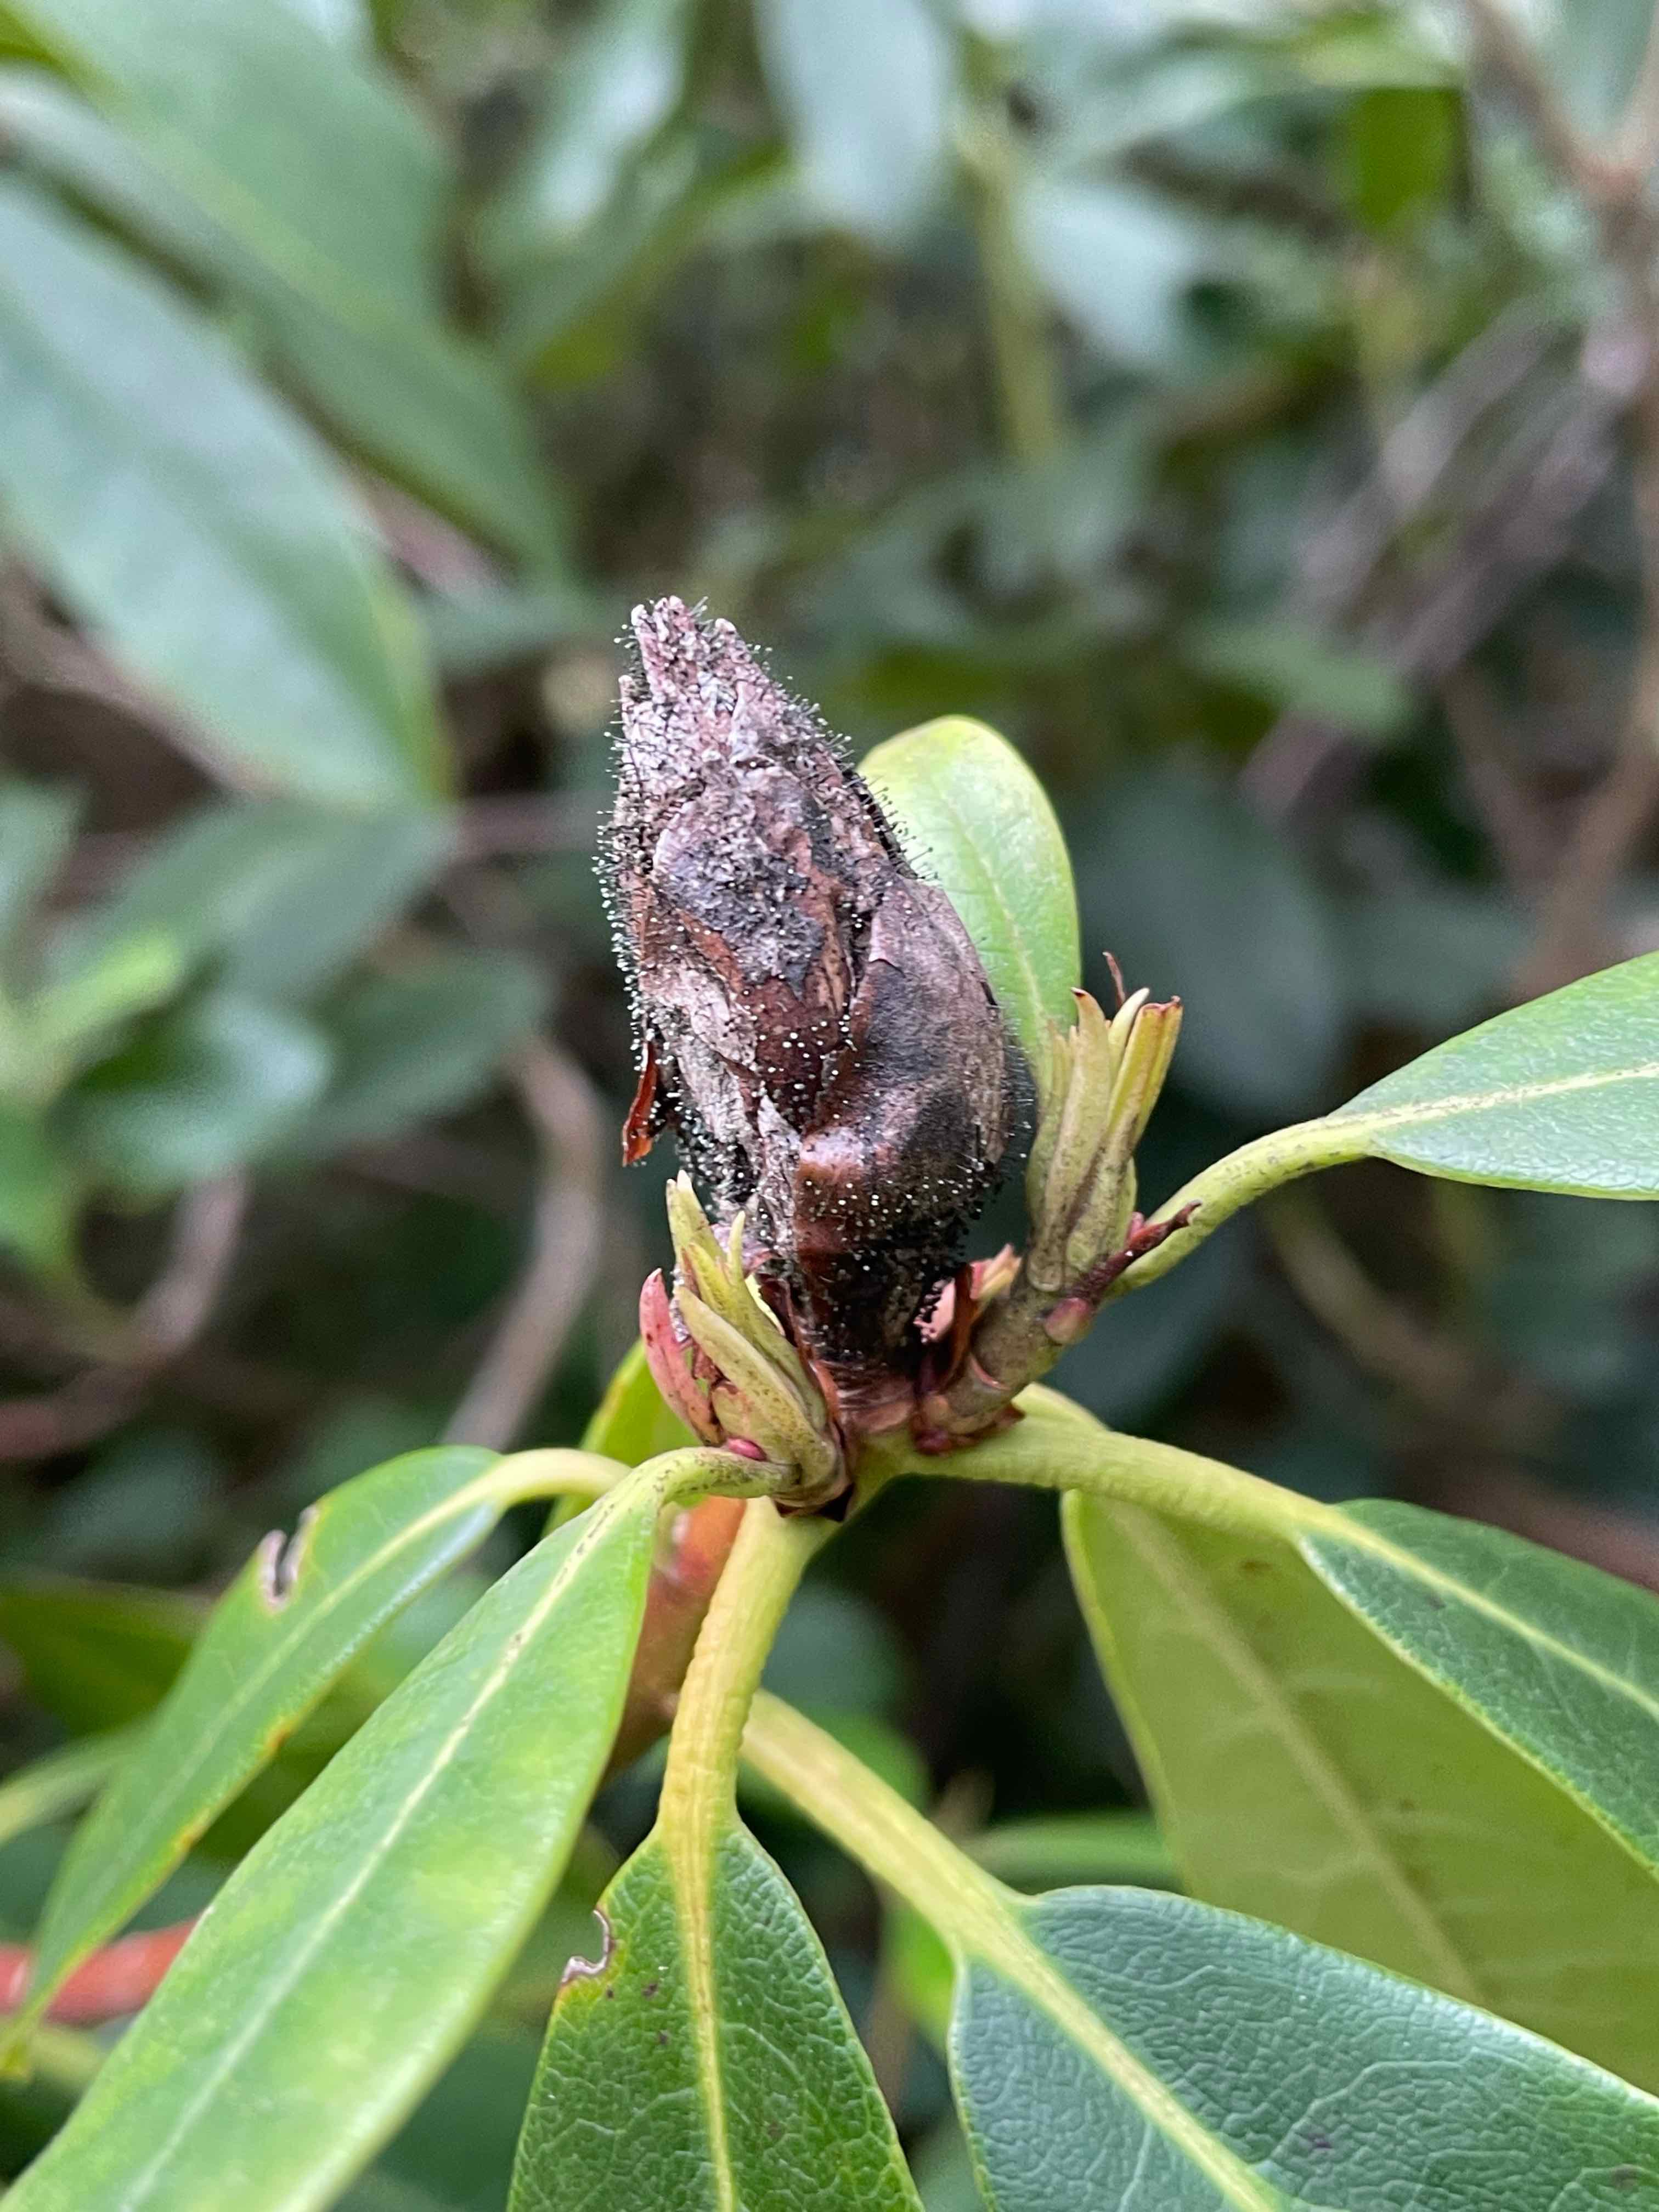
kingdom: Fungi
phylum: Ascomycota
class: Dothideomycetes
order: Pleosporales
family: Melanommataceae
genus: Seifertia
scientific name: Seifertia azaleae
